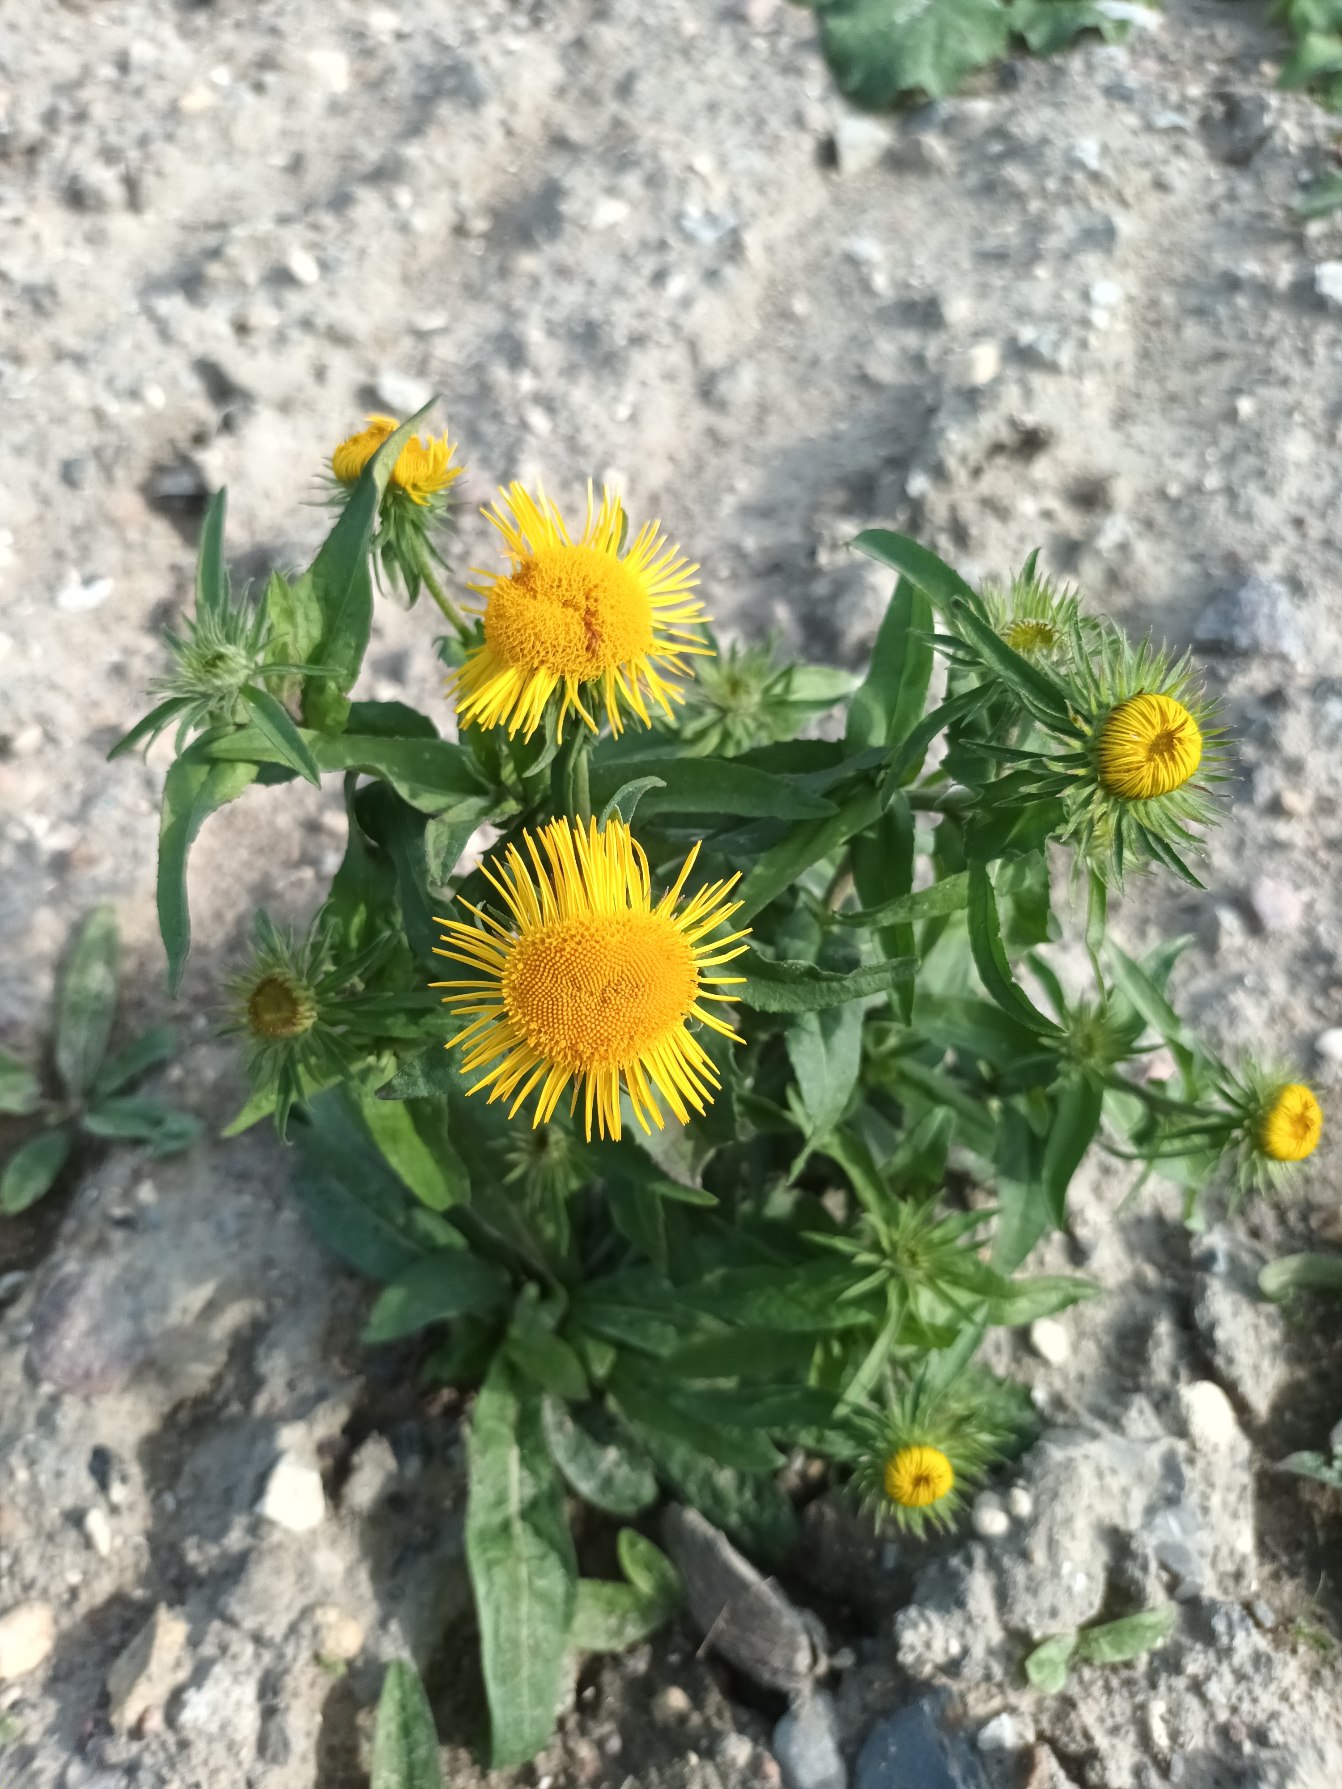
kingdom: Plantae
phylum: Tracheophyta
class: Magnoliopsida
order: Asterales
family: Asteraceae
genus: Pentanema
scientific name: Pentanema britannicum
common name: Soløje-alant
